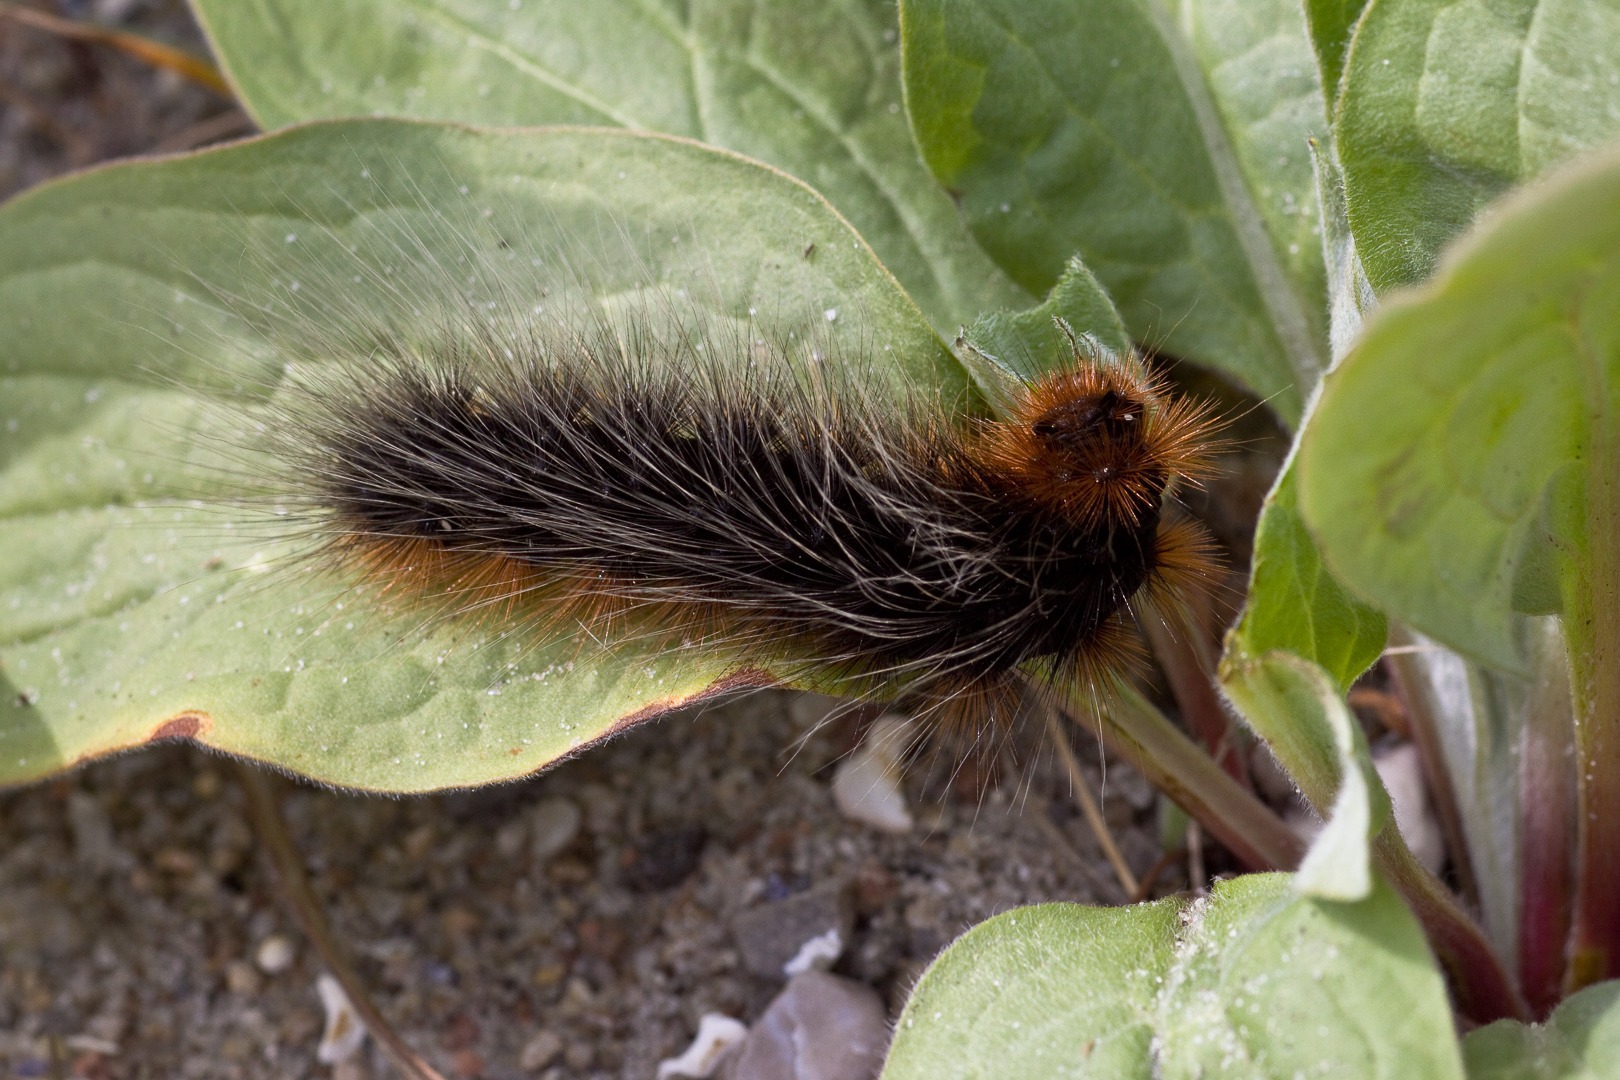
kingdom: Animalia
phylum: Arthropoda
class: Insecta
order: Lepidoptera
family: Erebidae
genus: Arctia
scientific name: Arctia caja
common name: Brun bjørn
